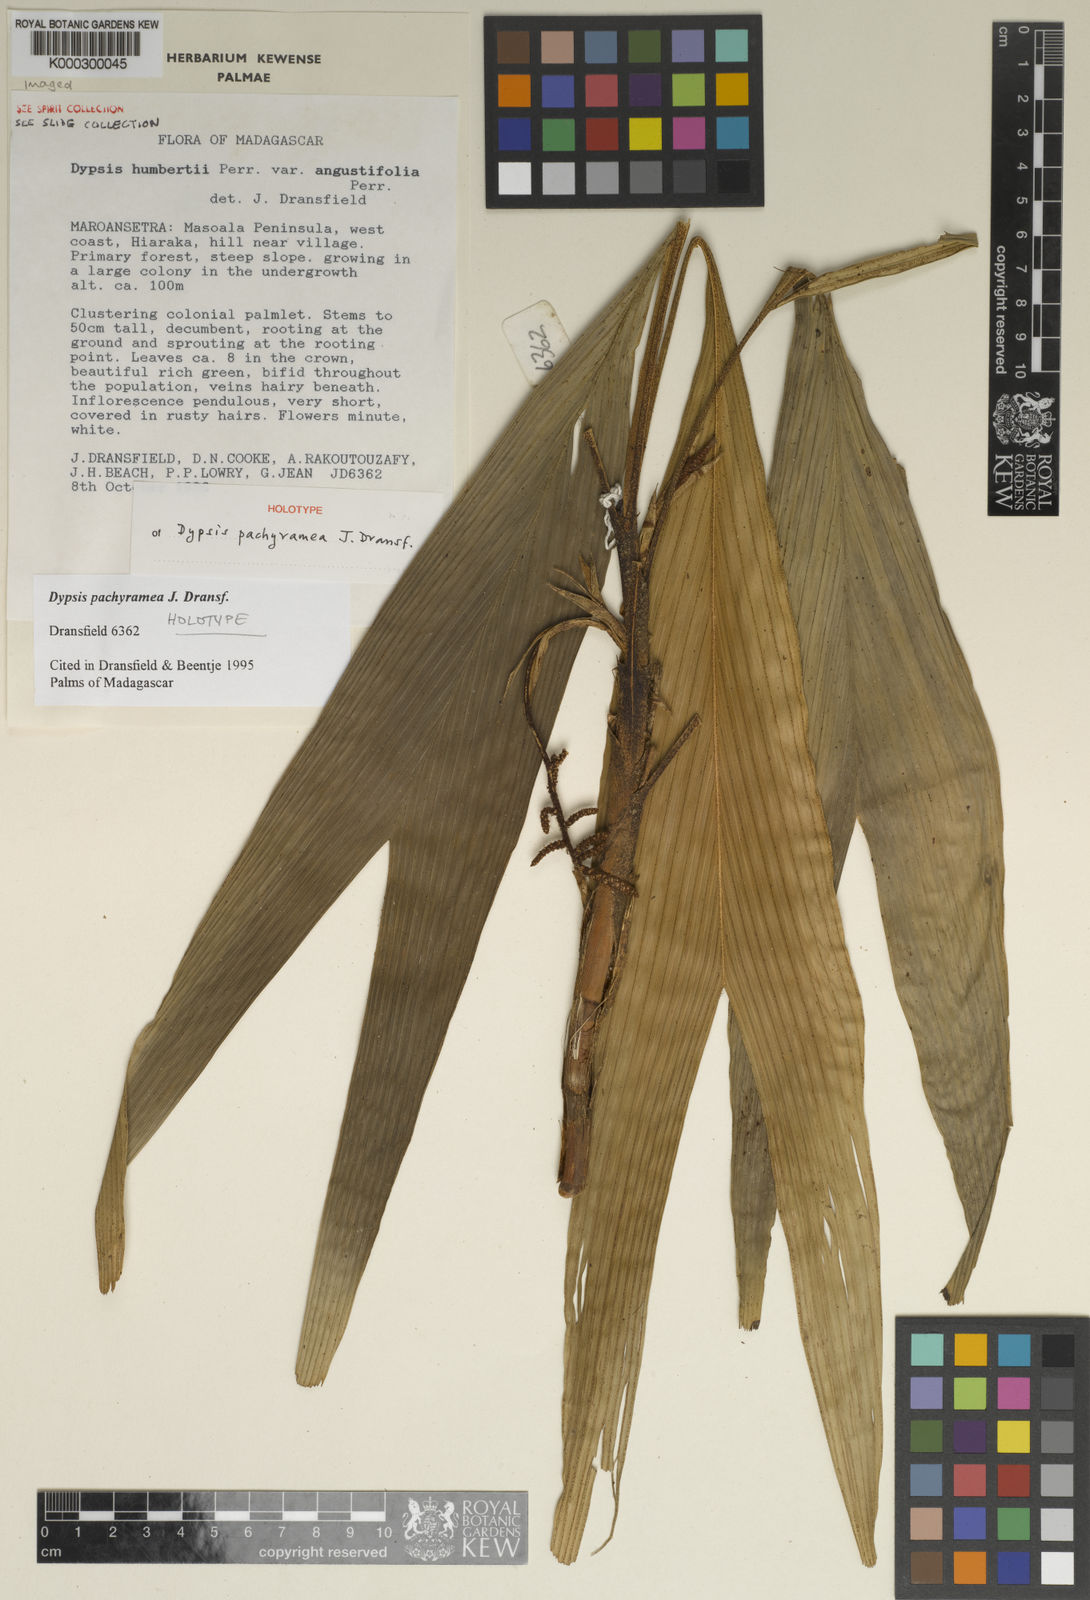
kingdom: Plantae
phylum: Tracheophyta
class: Liliopsida
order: Arecales
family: Arecaceae
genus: Dypsis
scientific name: Dypsis pachyramea
